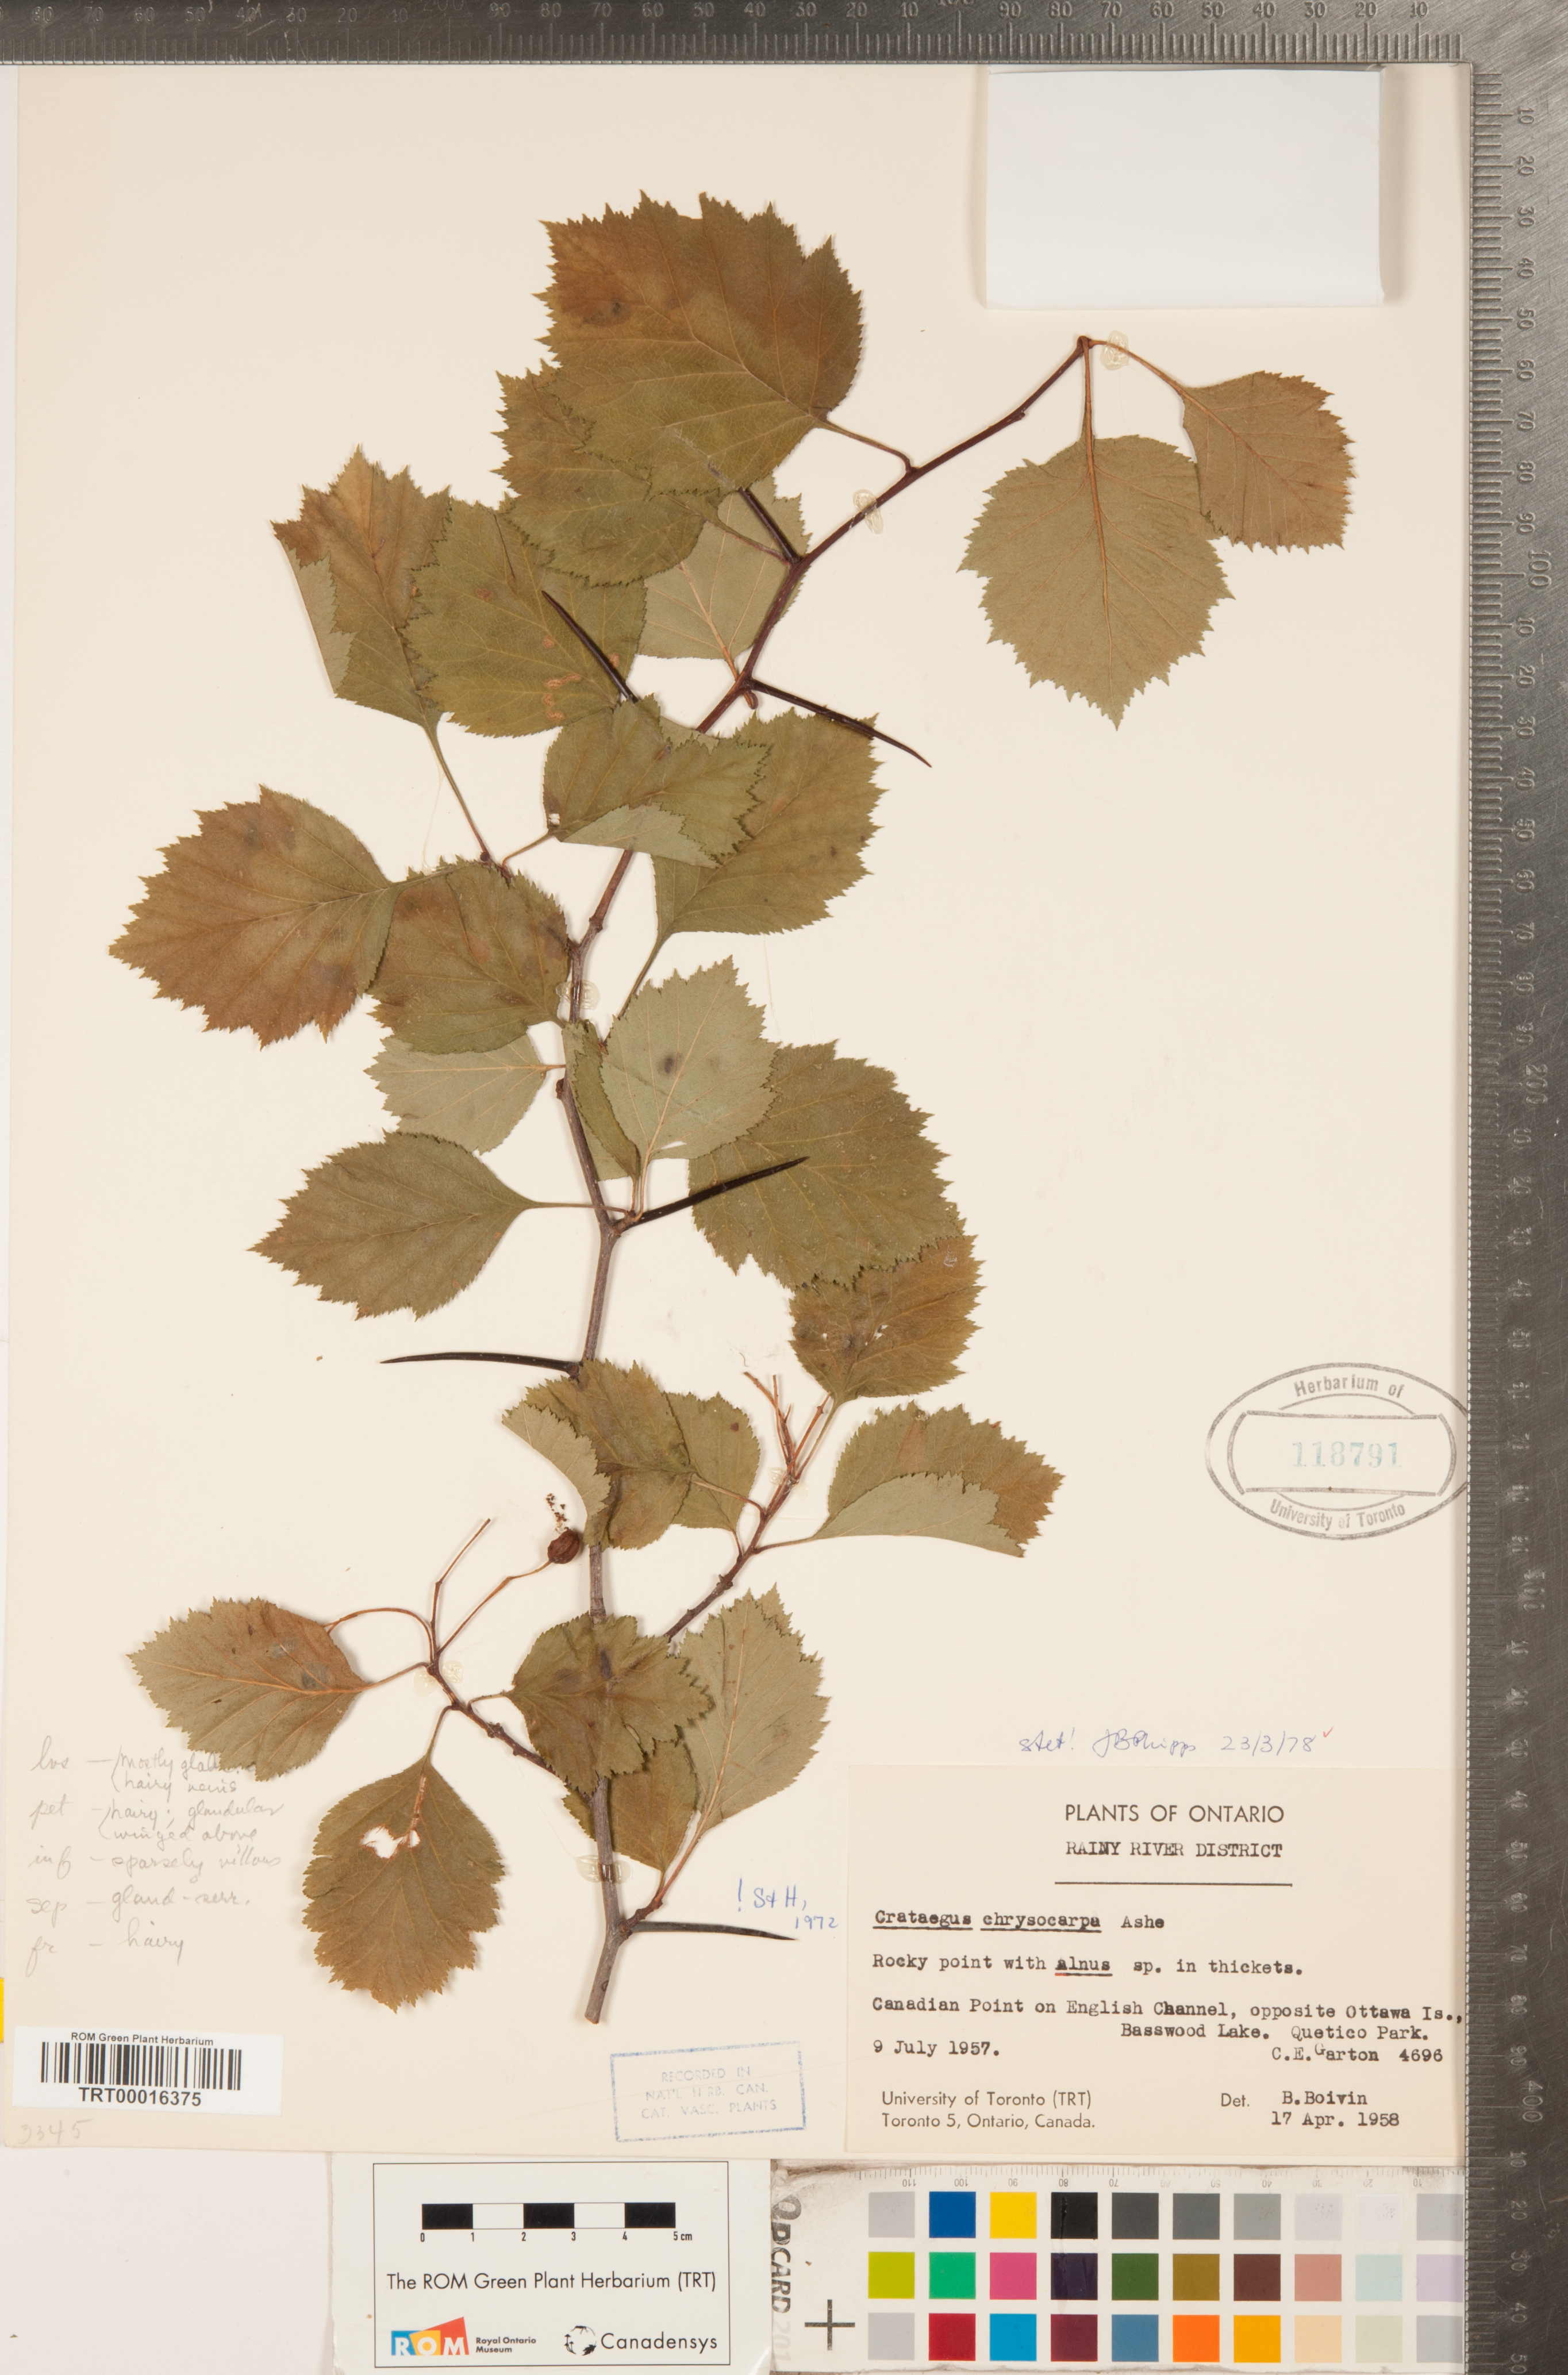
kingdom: Plantae
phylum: Tracheophyta
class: Magnoliopsida
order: Rosales
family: Rosaceae
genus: Crataegus
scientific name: Crataegus chrysocarpa
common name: Fire-berry hawthorn
